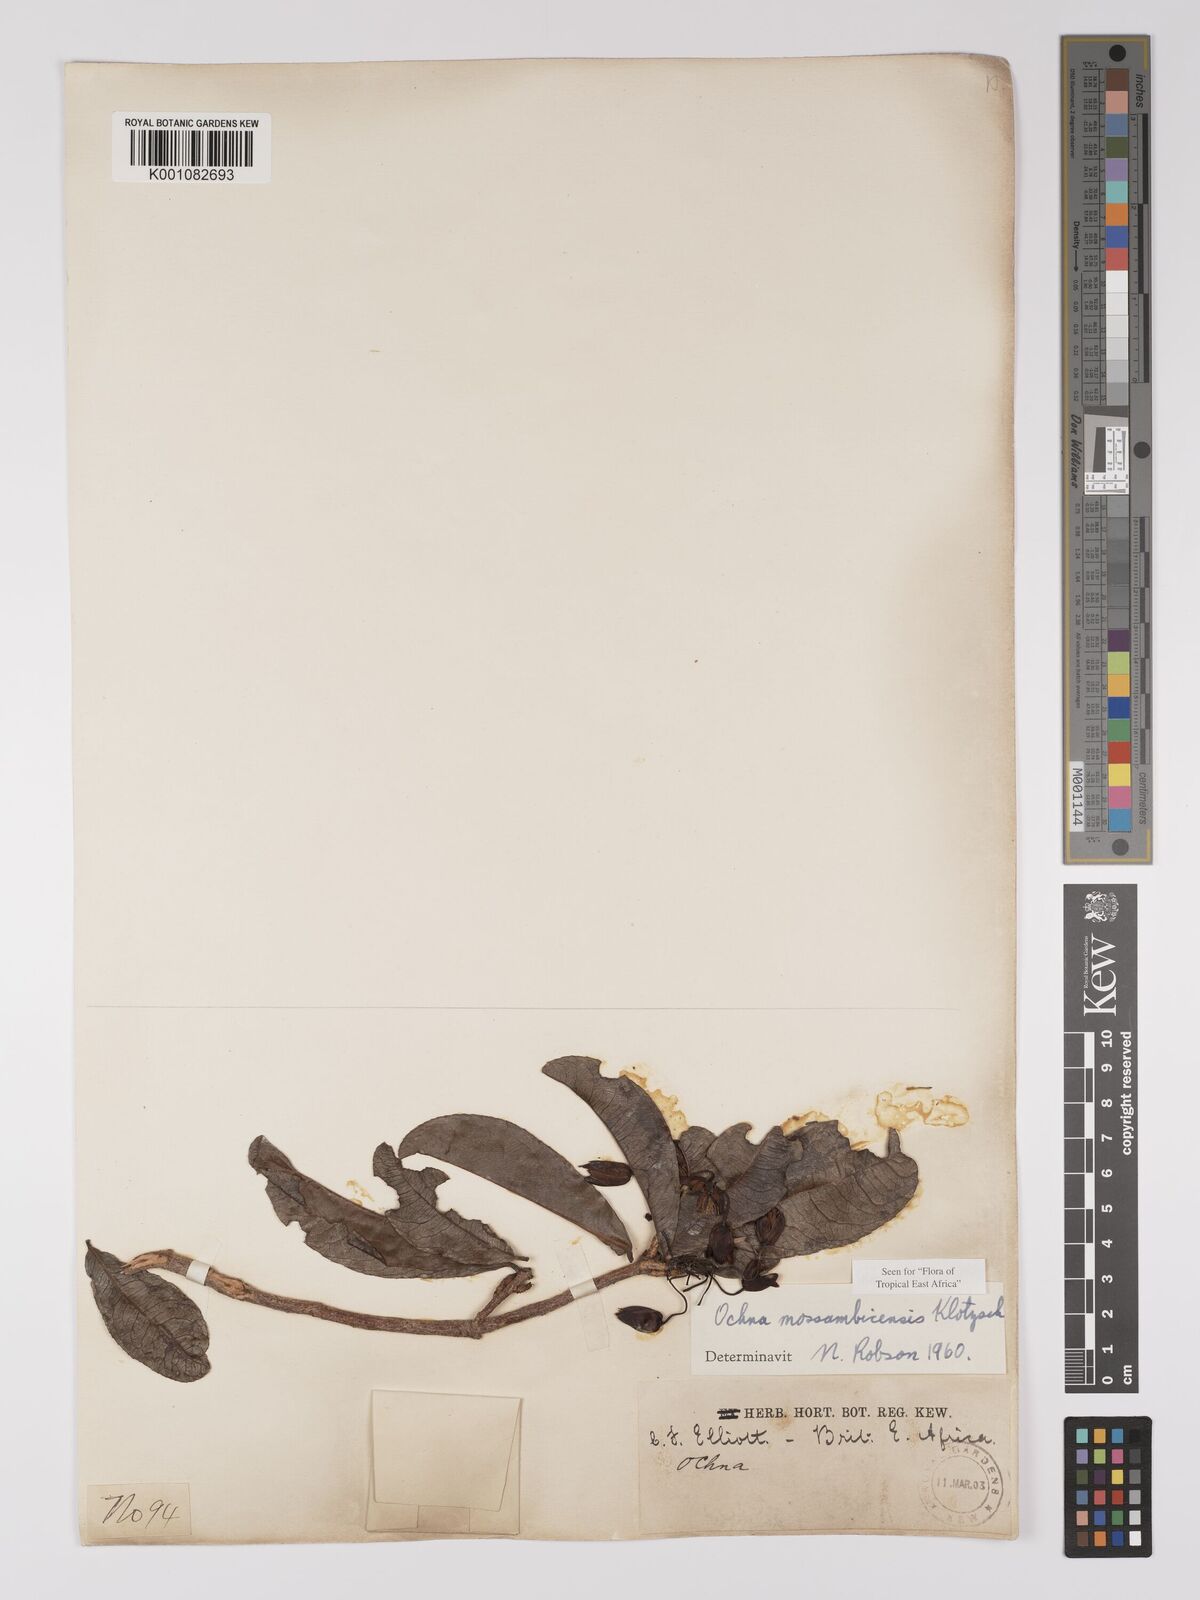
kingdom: Plantae
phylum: Tracheophyta
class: Magnoliopsida
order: Malpighiales
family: Ochnaceae
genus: Ochna
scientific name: Ochna atropurpurea
